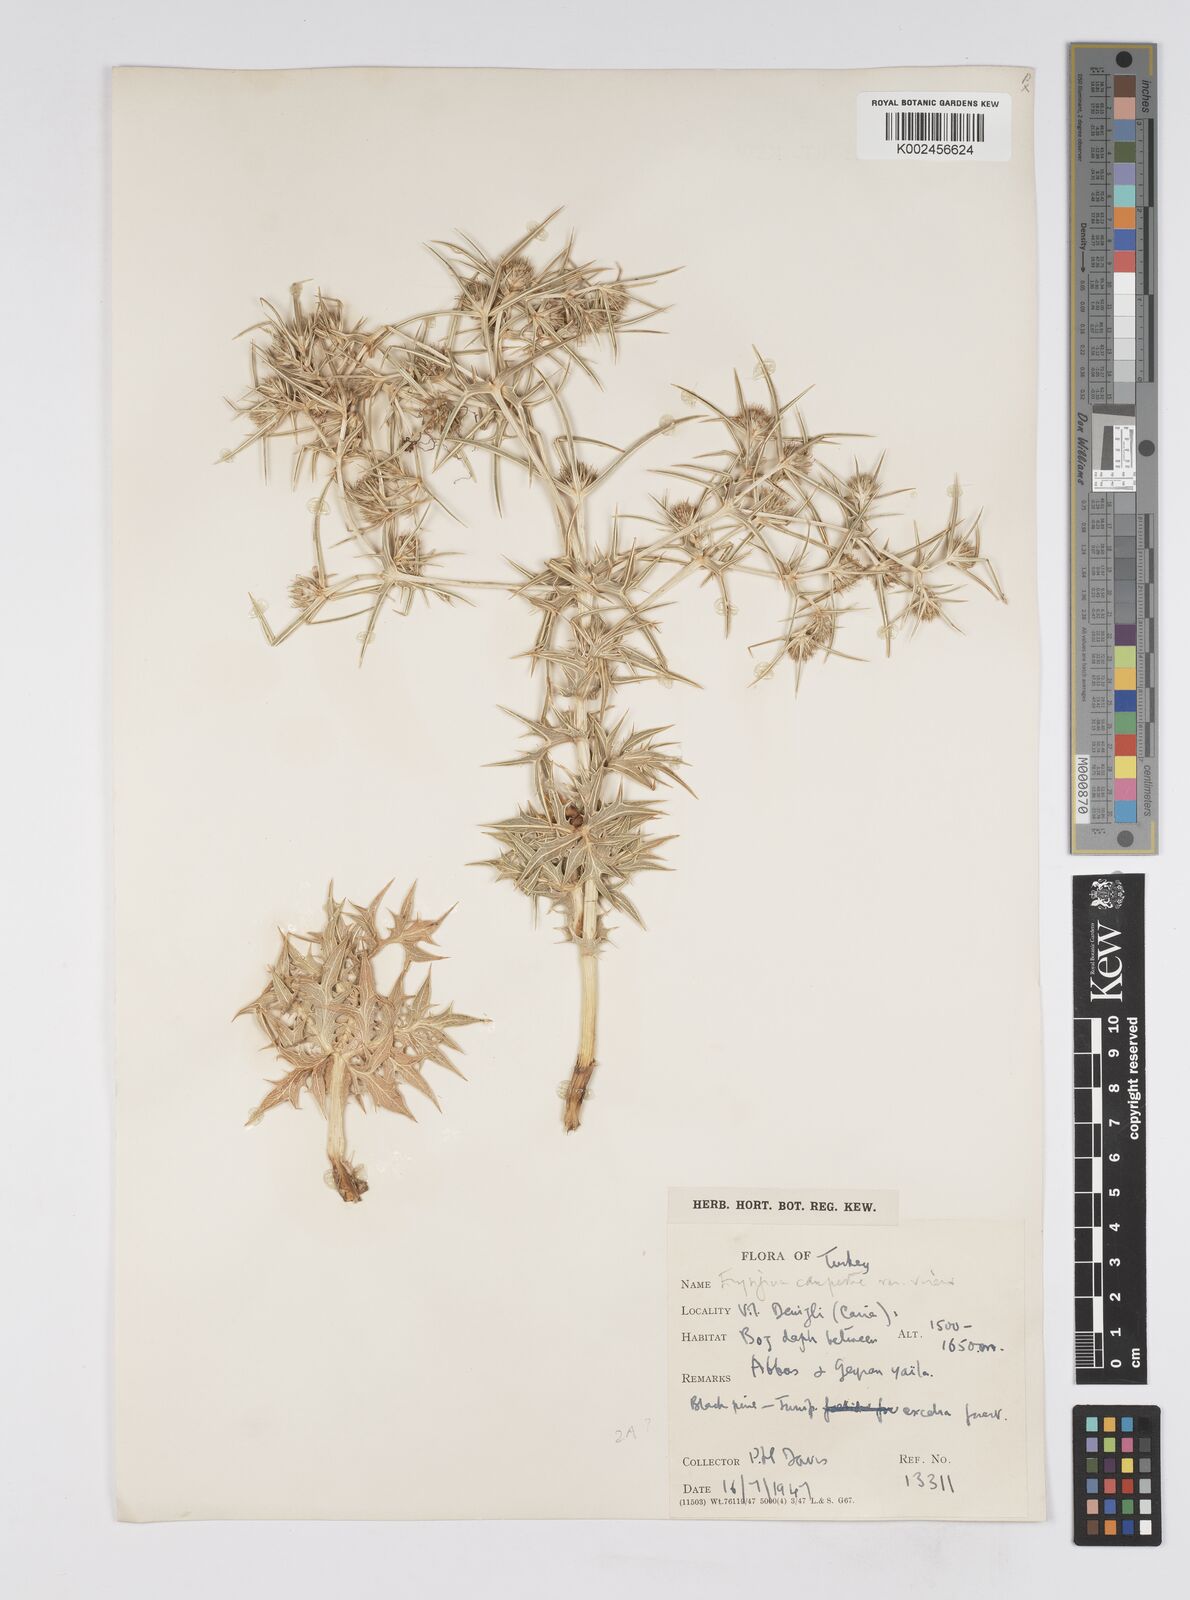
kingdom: Plantae
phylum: Tracheophyta
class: Magnoliopsida
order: Apiales
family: Apiaceae
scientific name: Apiaceae
